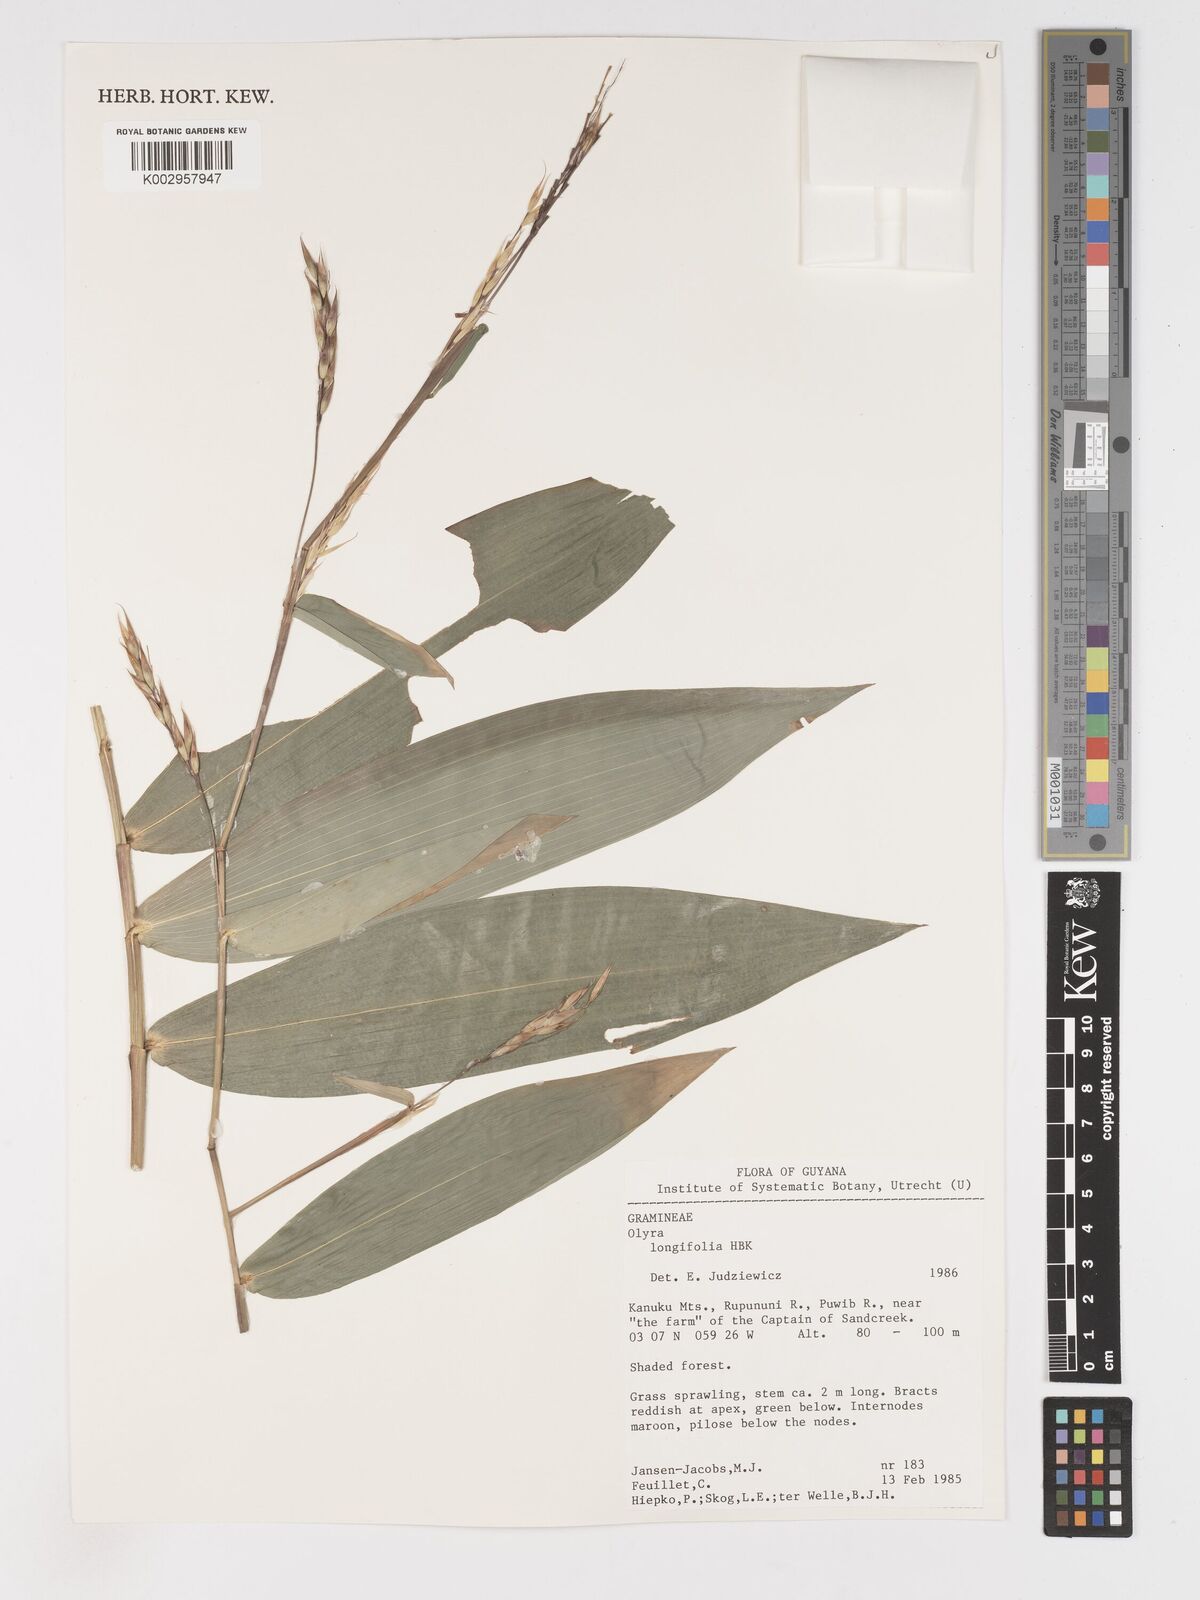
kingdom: Plantae
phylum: Tracheophyta
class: Liliopsida
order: Poales
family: Poaceae
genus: Olyra
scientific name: Olyra longifolia
